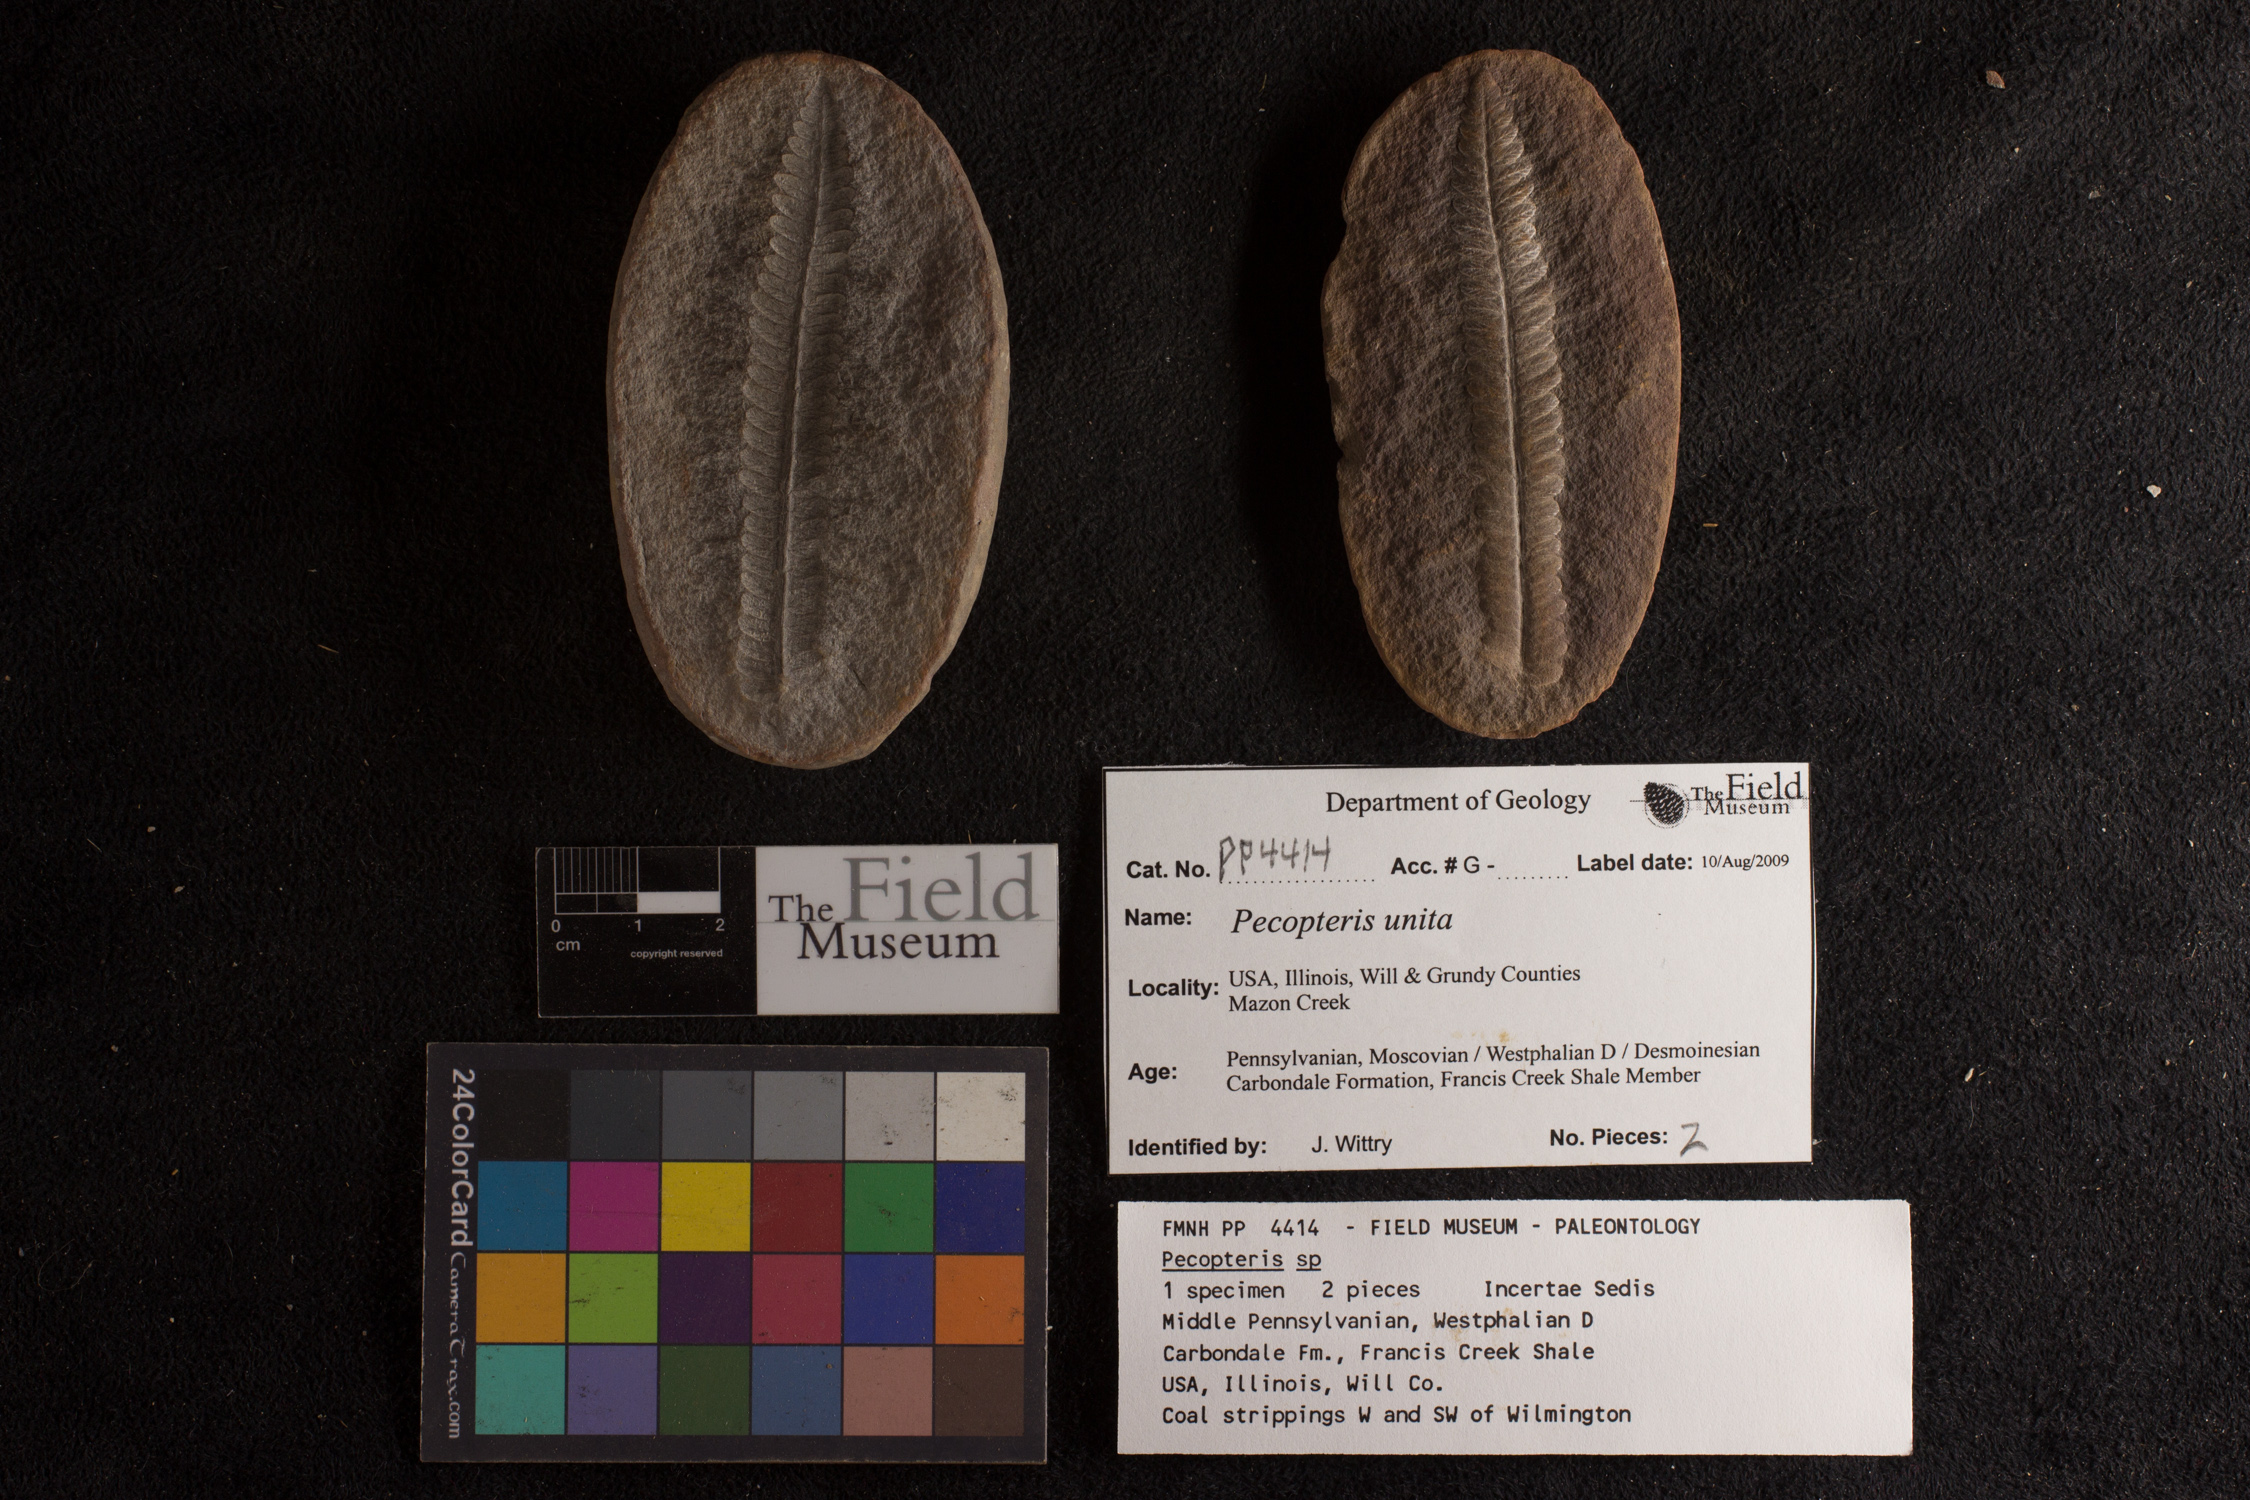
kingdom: Plantae
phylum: Tracheophyta
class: Polypodiopsida
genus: Diplazites
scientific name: Diplazites
